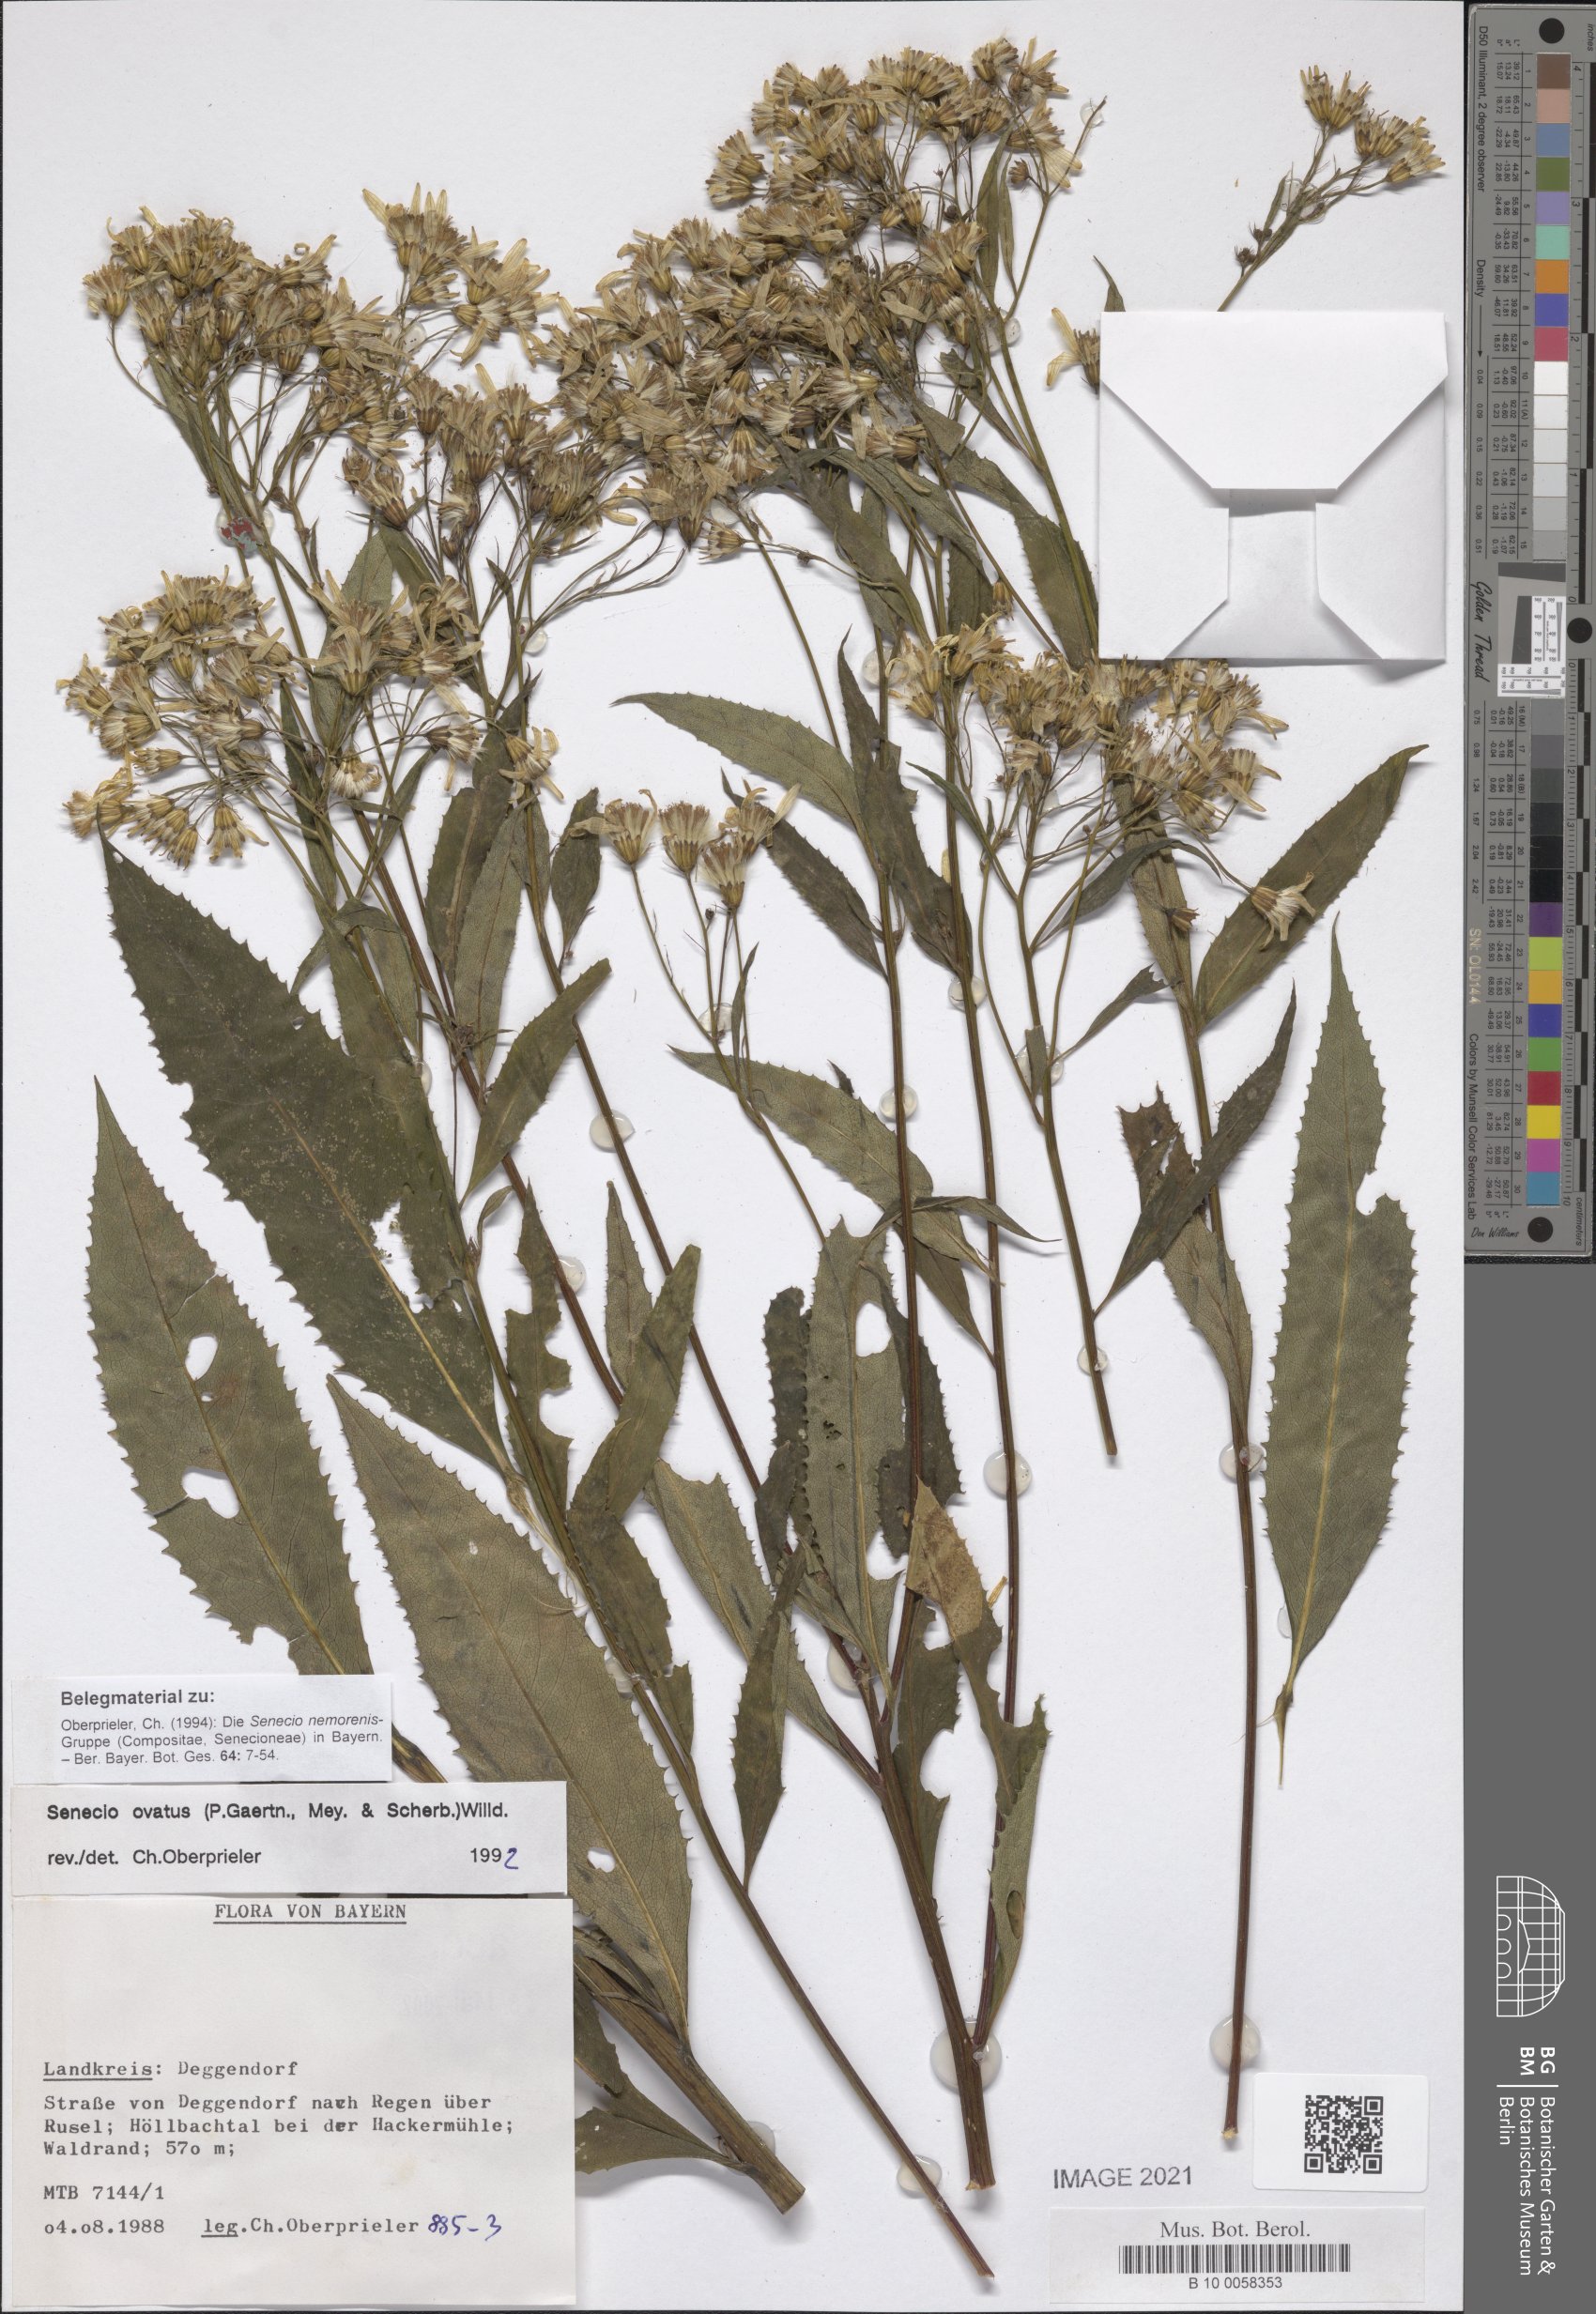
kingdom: Plantae
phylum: Tracheophyta
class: Magnoliopsida
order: Asterales
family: Asteraceae
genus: Senecio
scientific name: Senecio ovatus
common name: Wood ragwort
